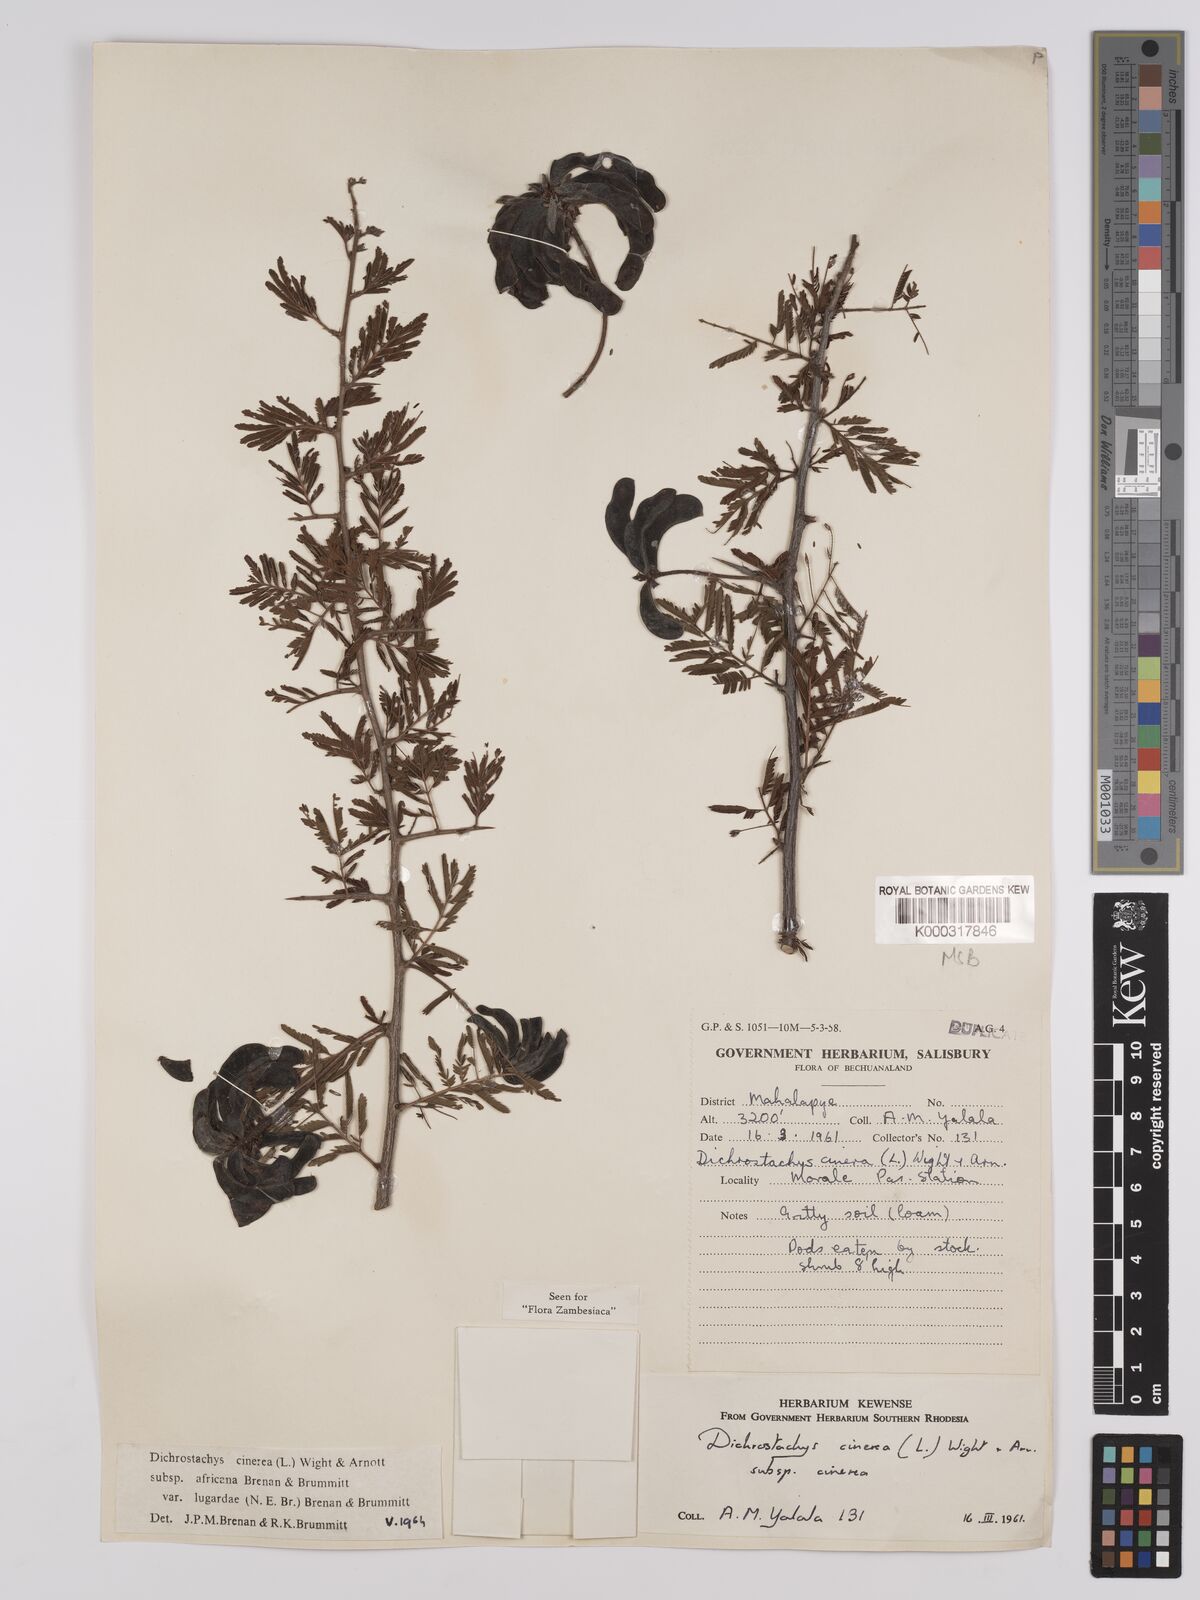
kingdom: Plantae
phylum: Tracheophyta
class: Magnoliopsida
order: Fabales
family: Fabaceae
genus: Dichrostachys
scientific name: Dichrostachys cinerea
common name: Sicklebush
